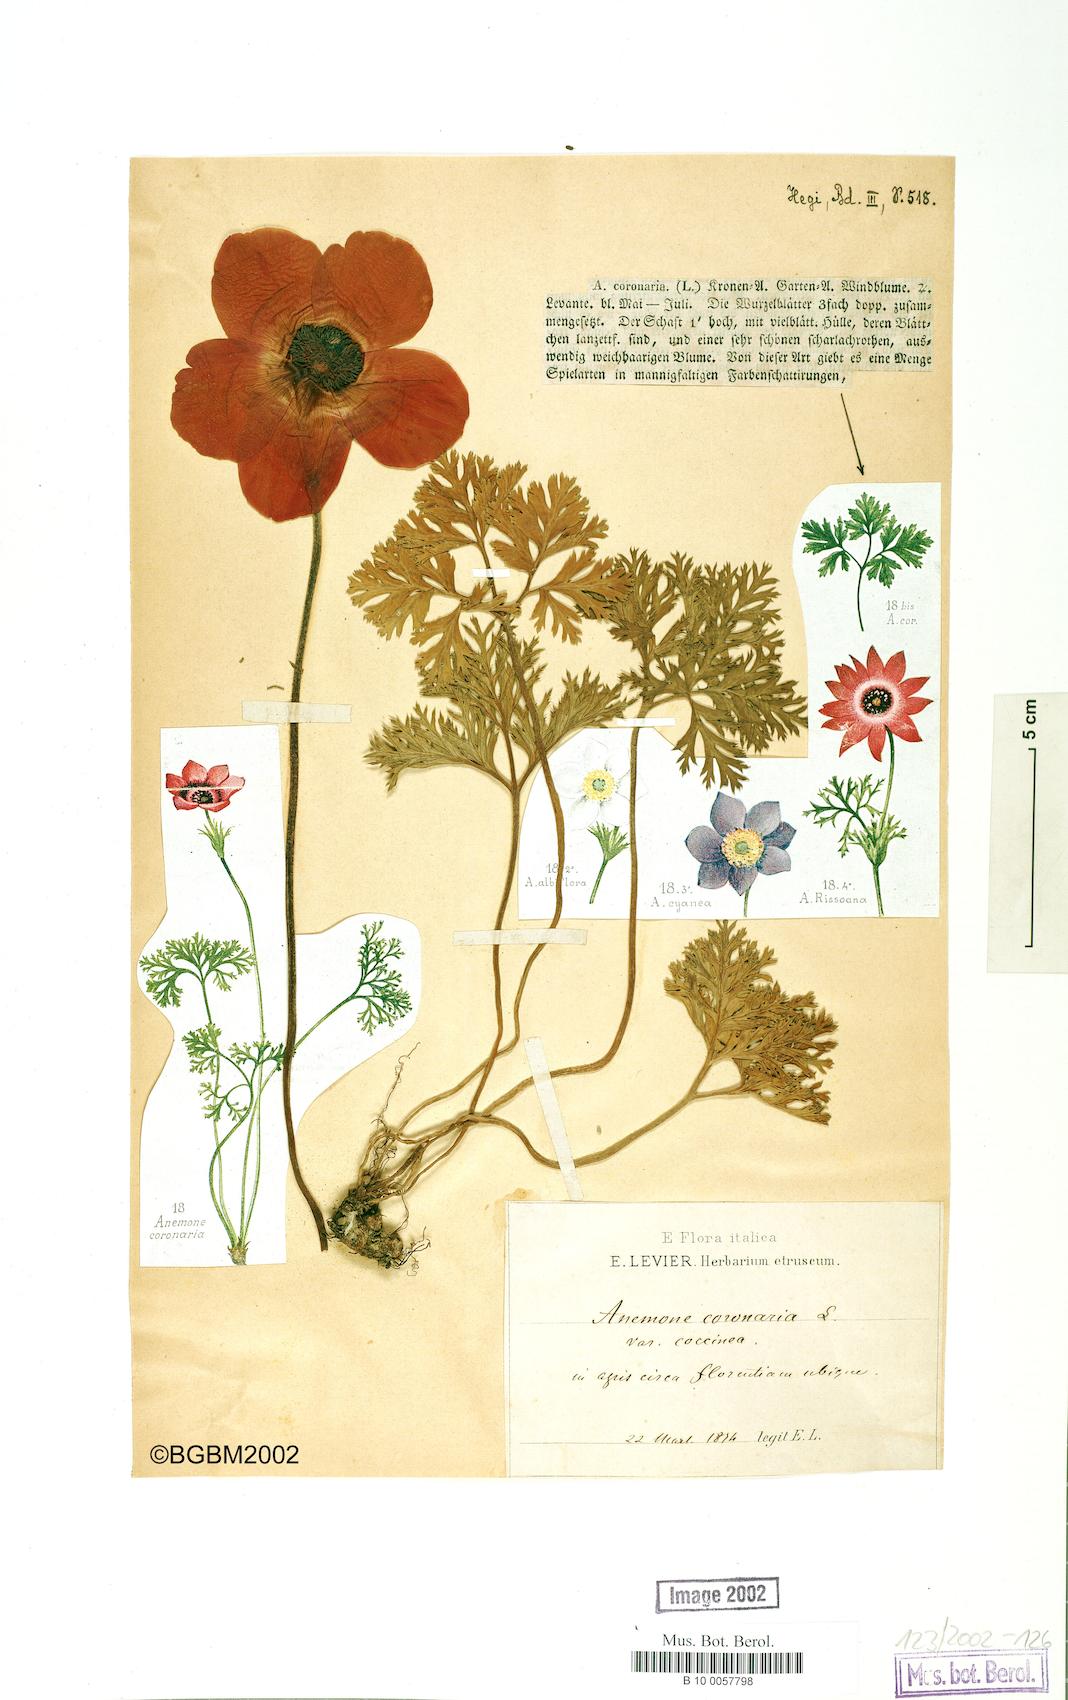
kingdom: Plantae
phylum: Tracheophyta
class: Magnoliopsida
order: Ranunculales
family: Ranunculaceae
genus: Anemone
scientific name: Anemone coronaria
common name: Poppy anemone
